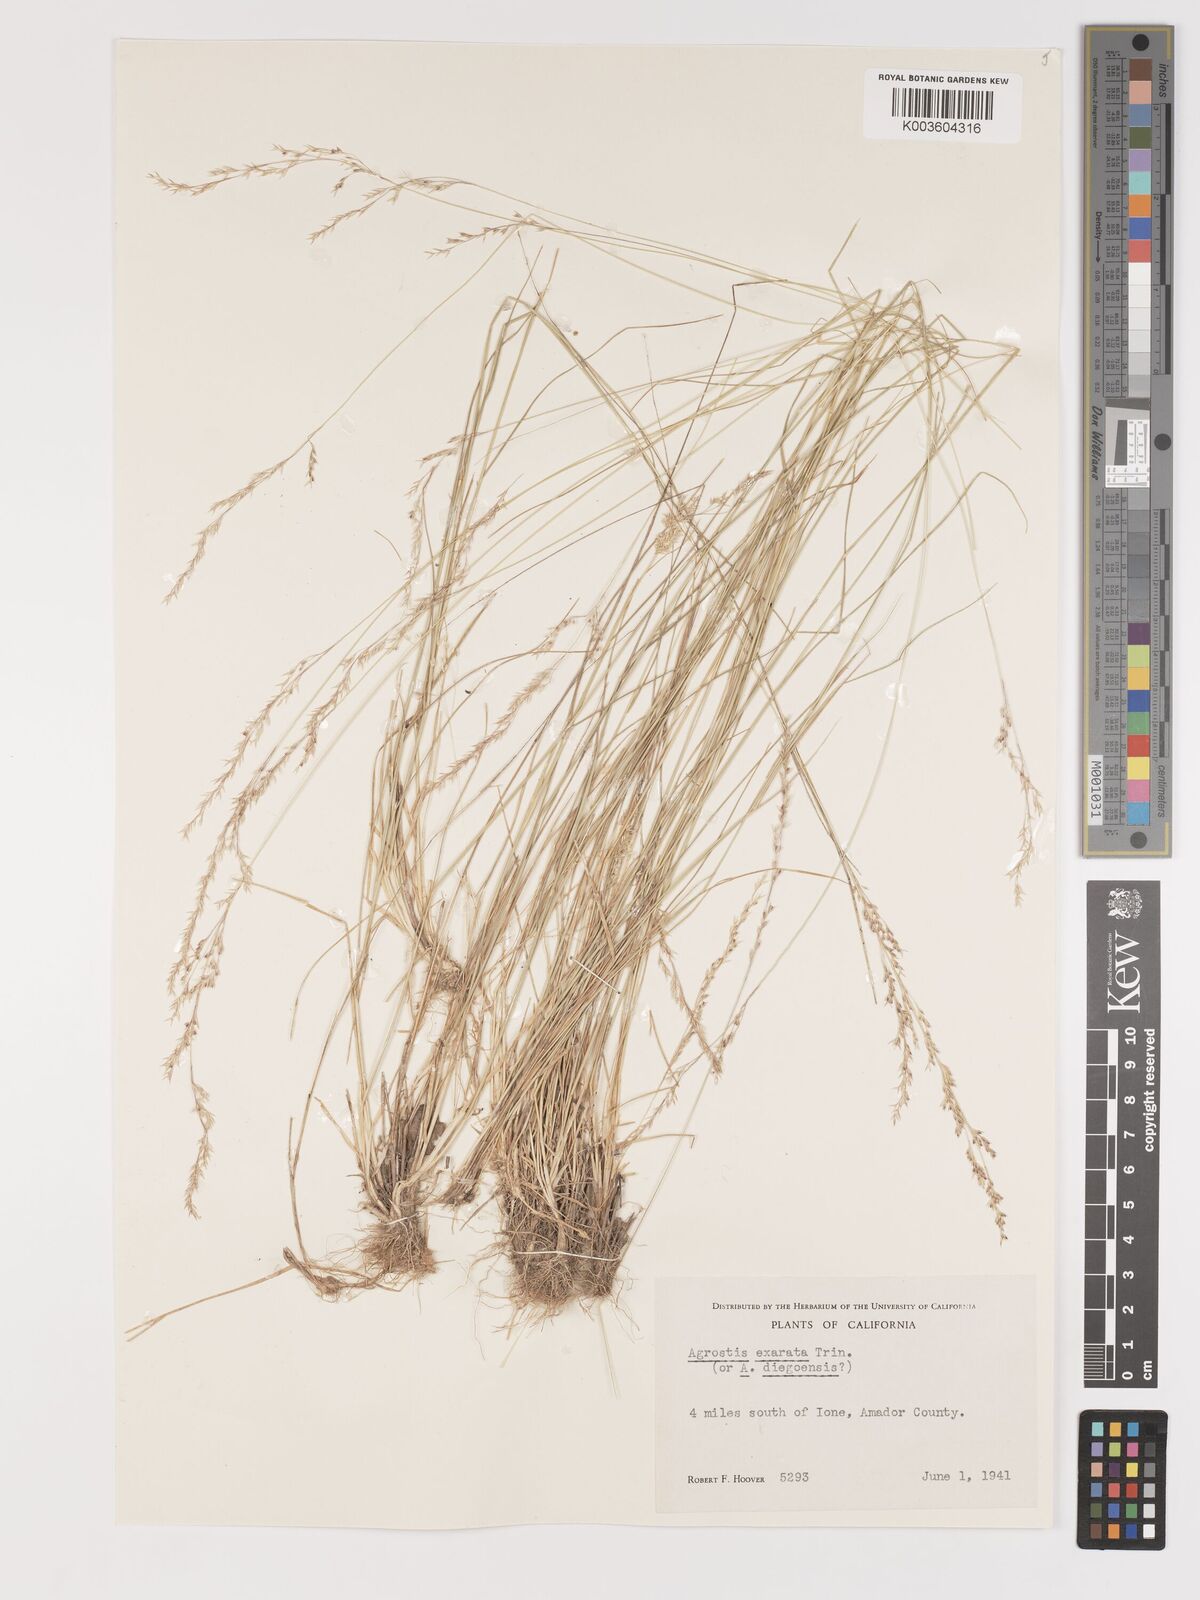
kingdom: Plantae
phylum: Tracheophyta
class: Liliopsida
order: Poales
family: Poaceae
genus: Agrostis
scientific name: Agrostis exarata
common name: Spike bent
